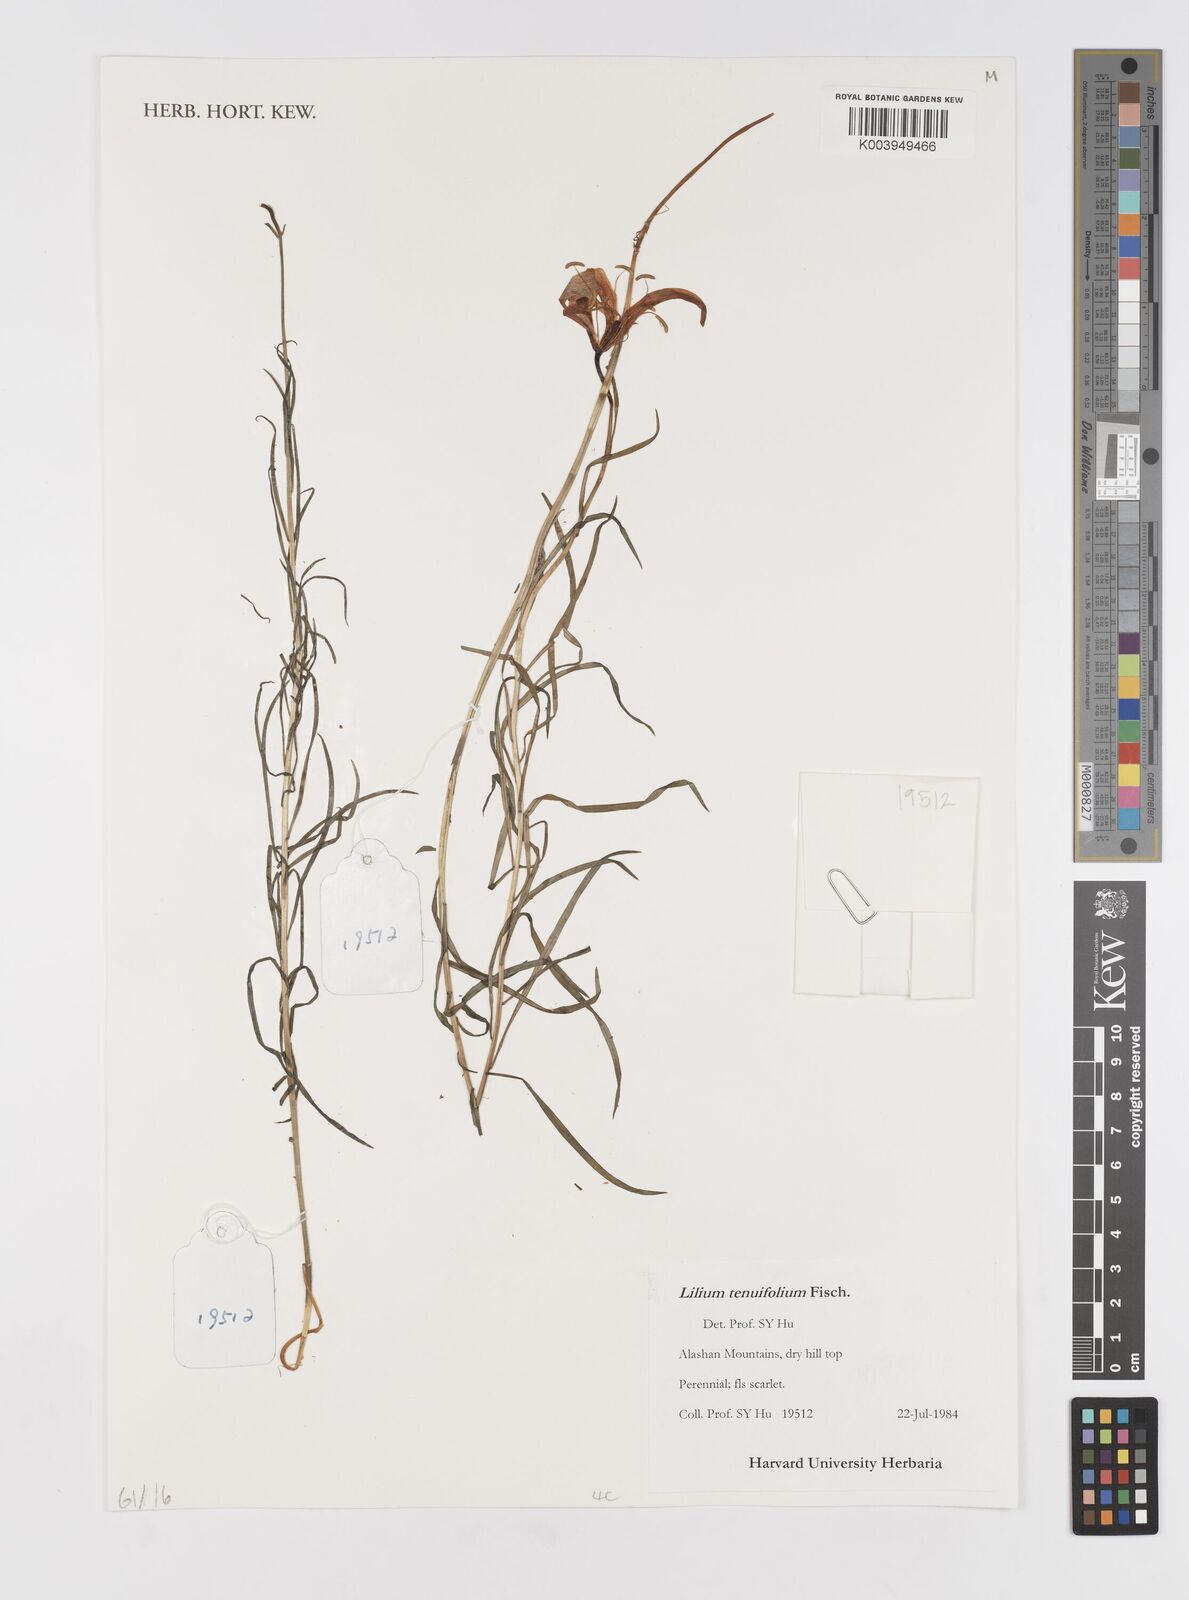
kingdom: Plantae
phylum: Tracheophyta
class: Liliopsida
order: Liliales
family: Liliaceae
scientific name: Liliaceae
